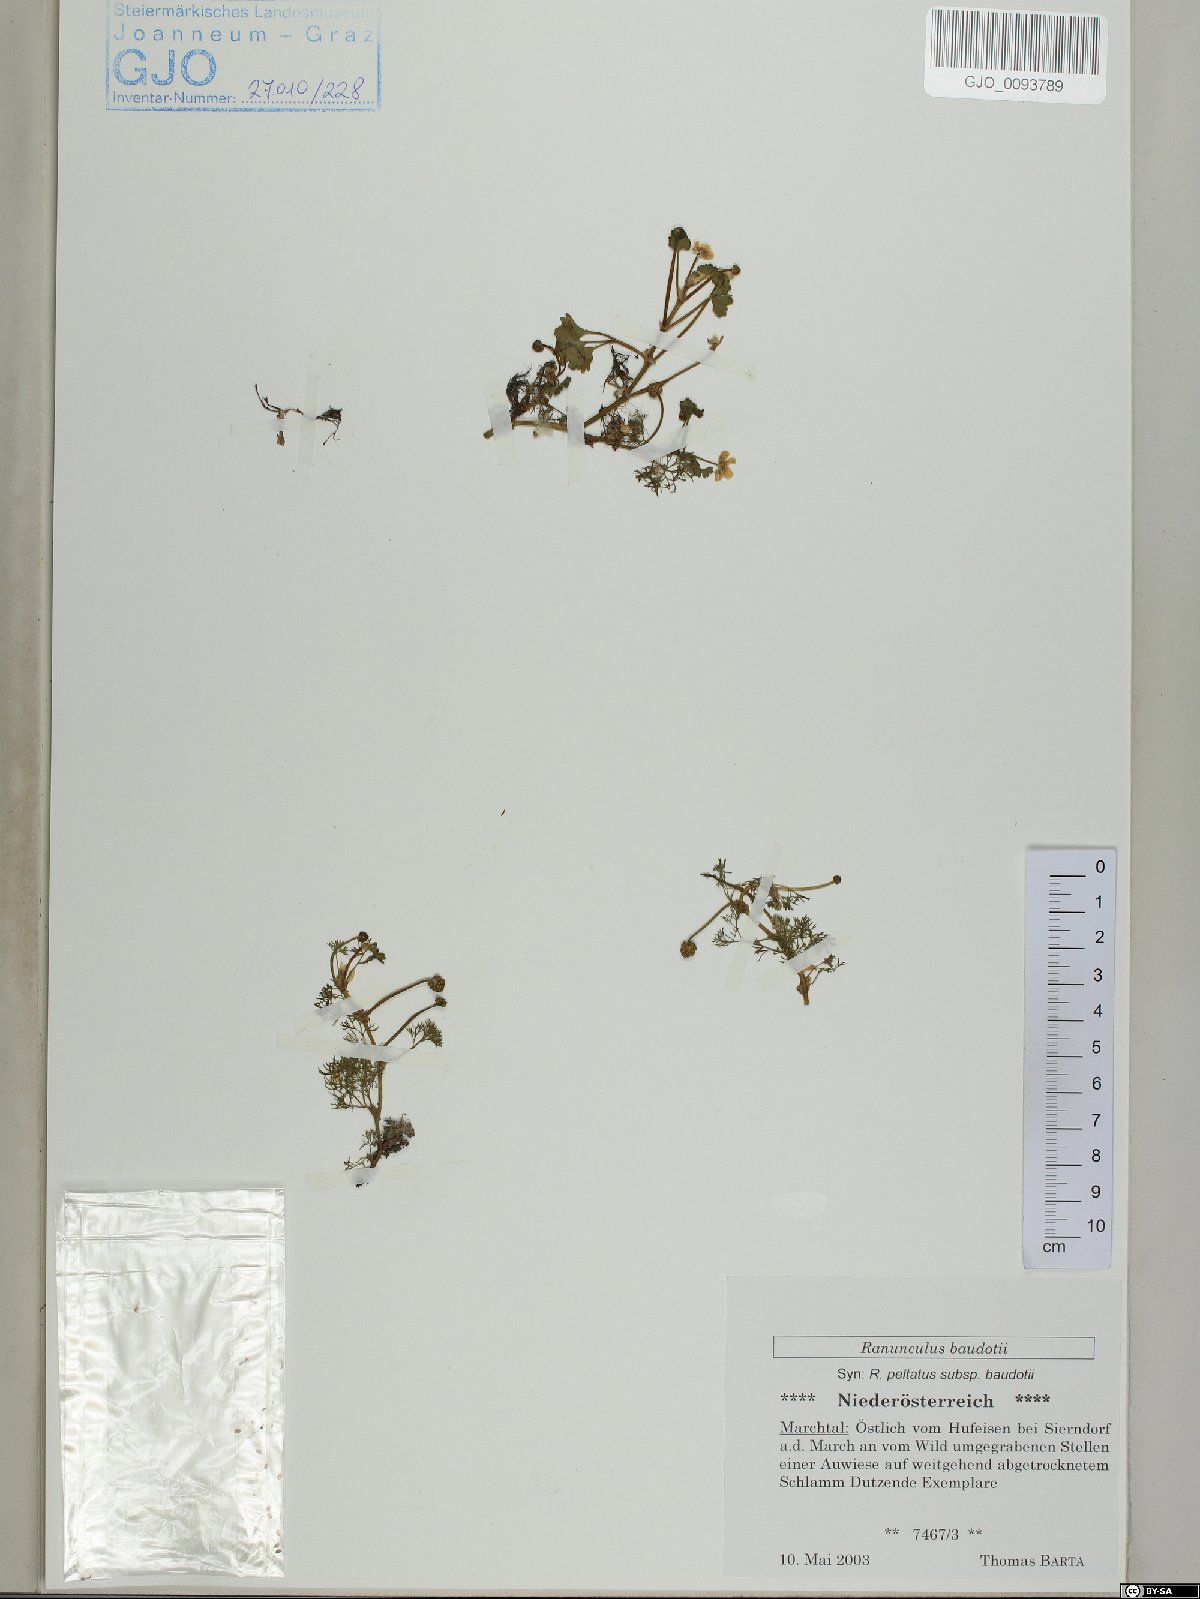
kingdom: Plantae
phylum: Tracheophyta
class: Magnoliopsida
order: Ranunculales
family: Ranunculaceae
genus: Ranunculus
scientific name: Ranunculus peltatus
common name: Pond water-crowfoot
